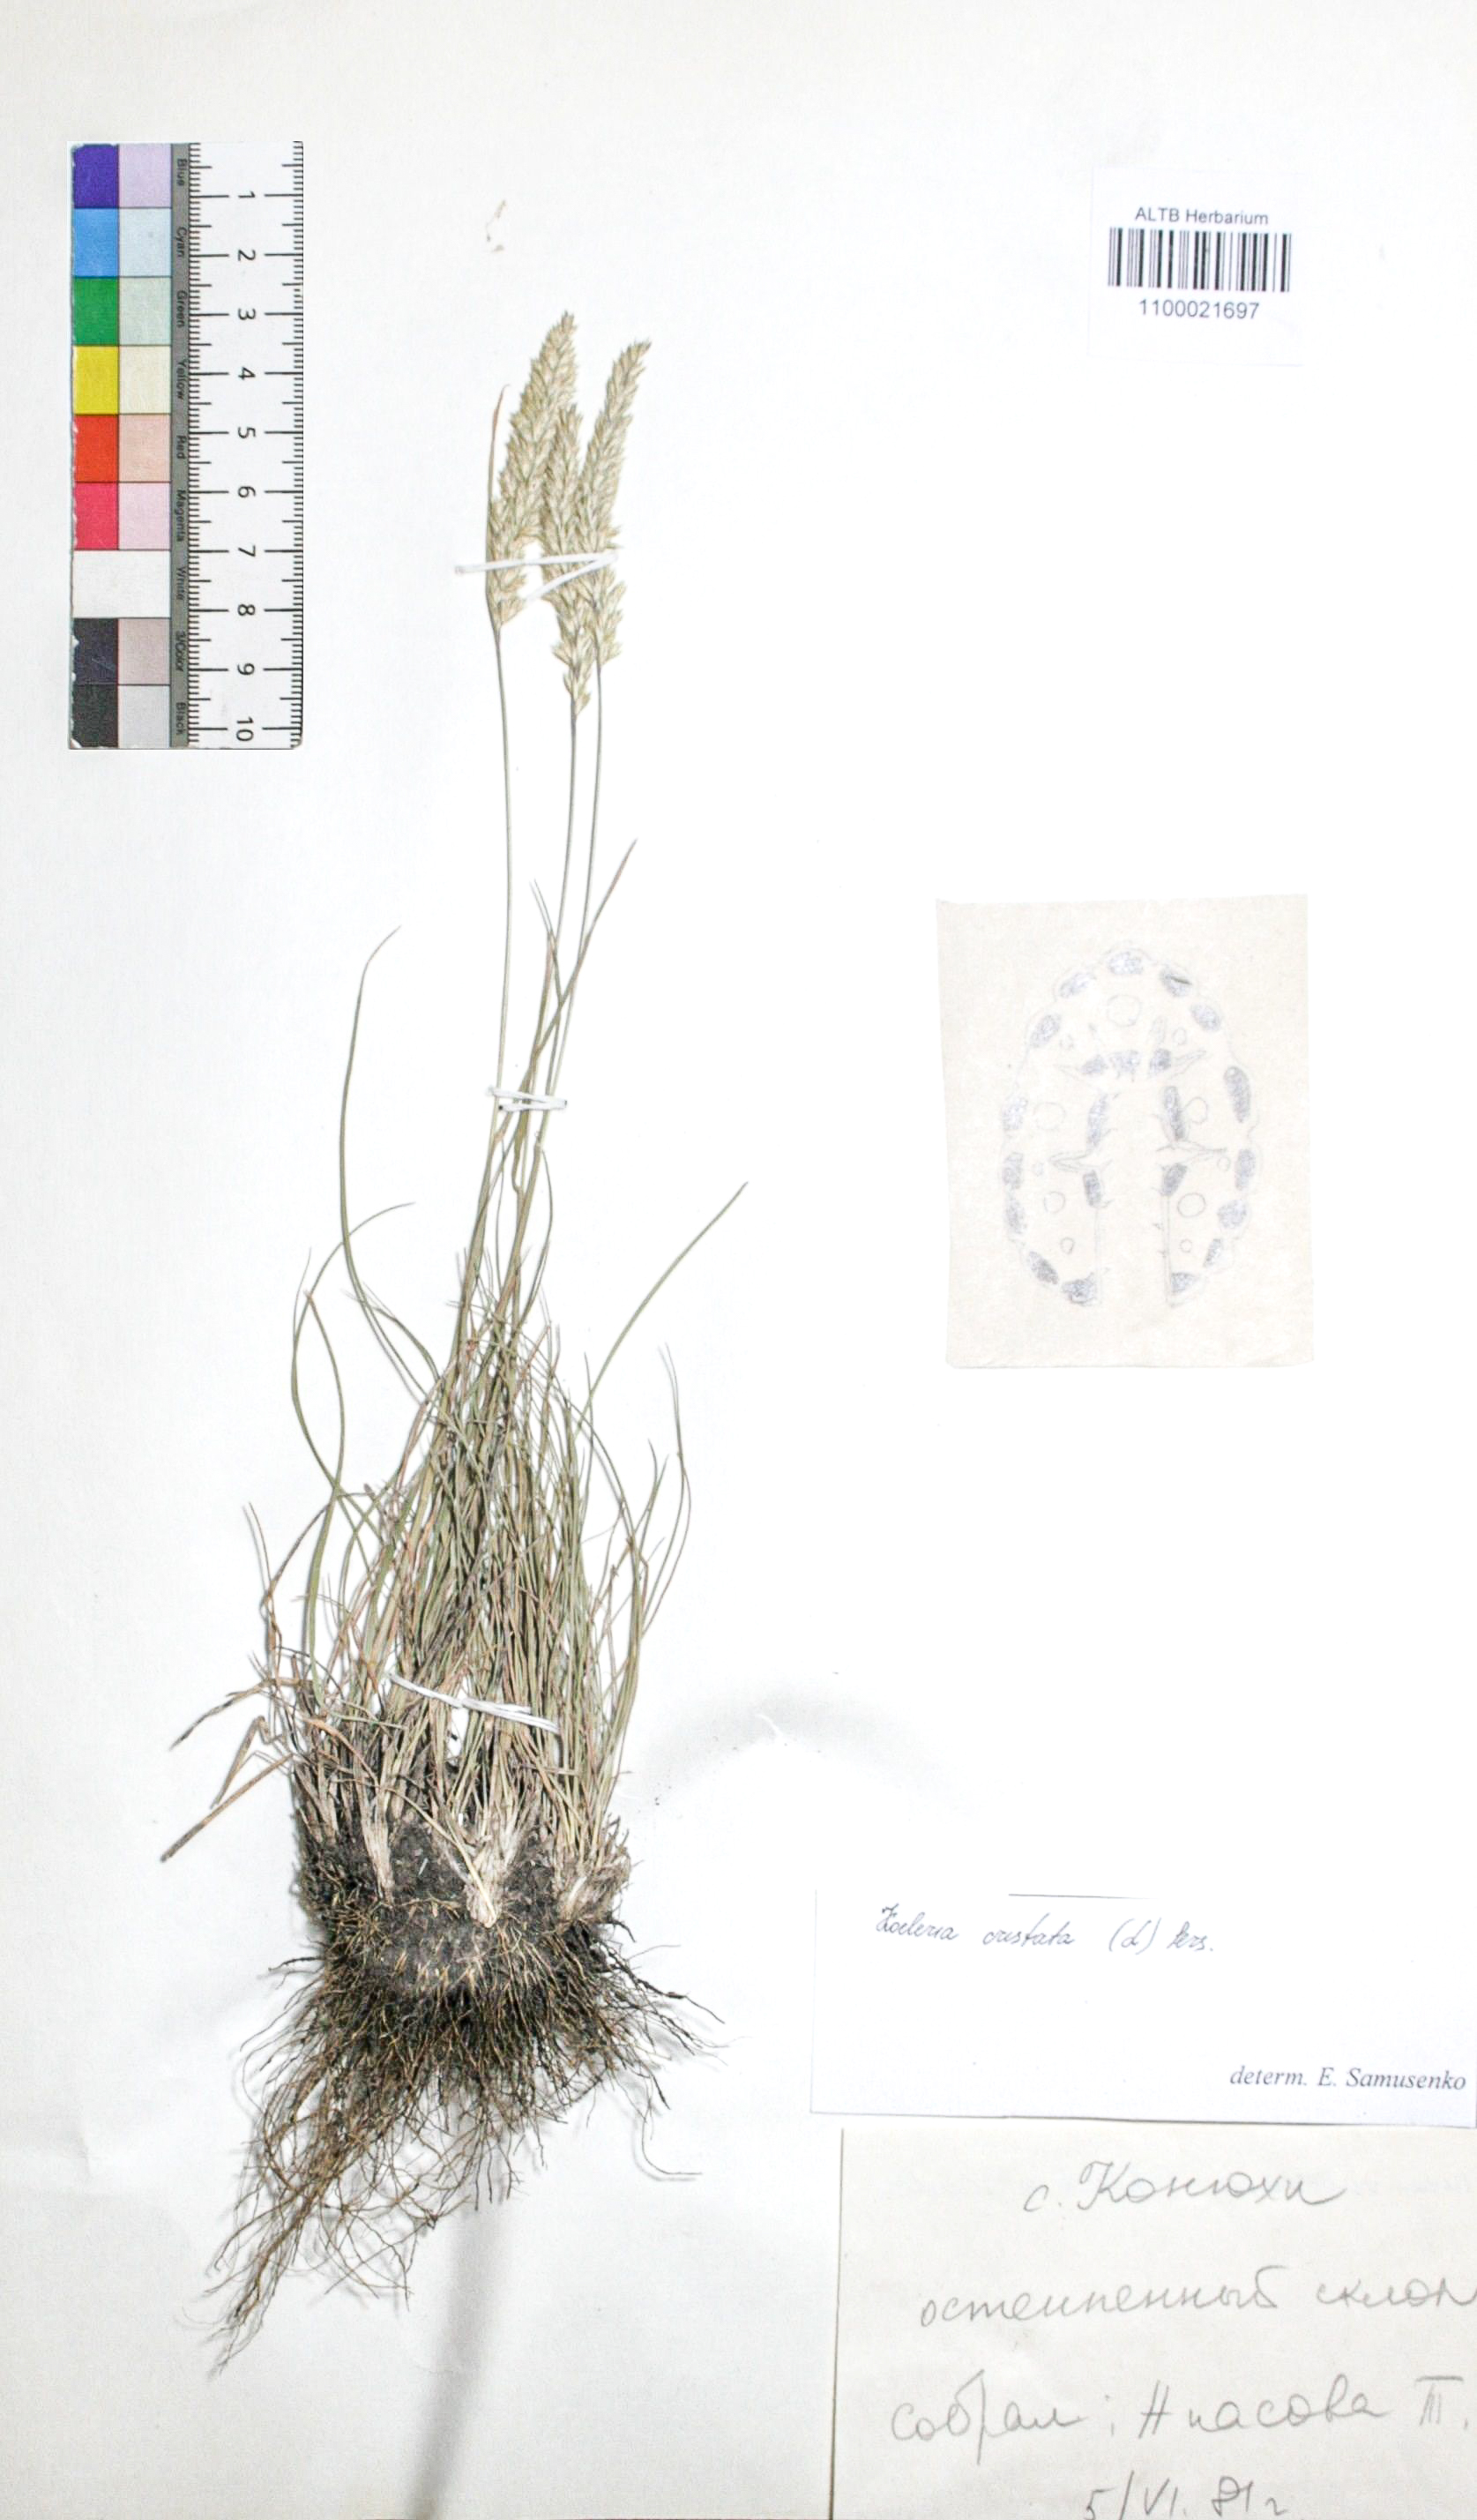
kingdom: Plantae
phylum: Tracheophyta
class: Liliopsida
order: Poales
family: Poaceae
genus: Koeleria
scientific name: Koeleria pyramidata
